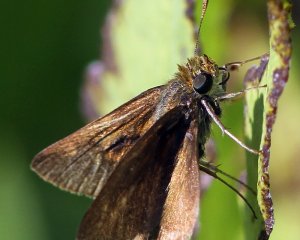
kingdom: Animalia
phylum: Arthropoda
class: Insecta
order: Lepidoptera
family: Hesperiidae
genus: Polites
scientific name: Polites egeremet
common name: Northern Broken-Dash
